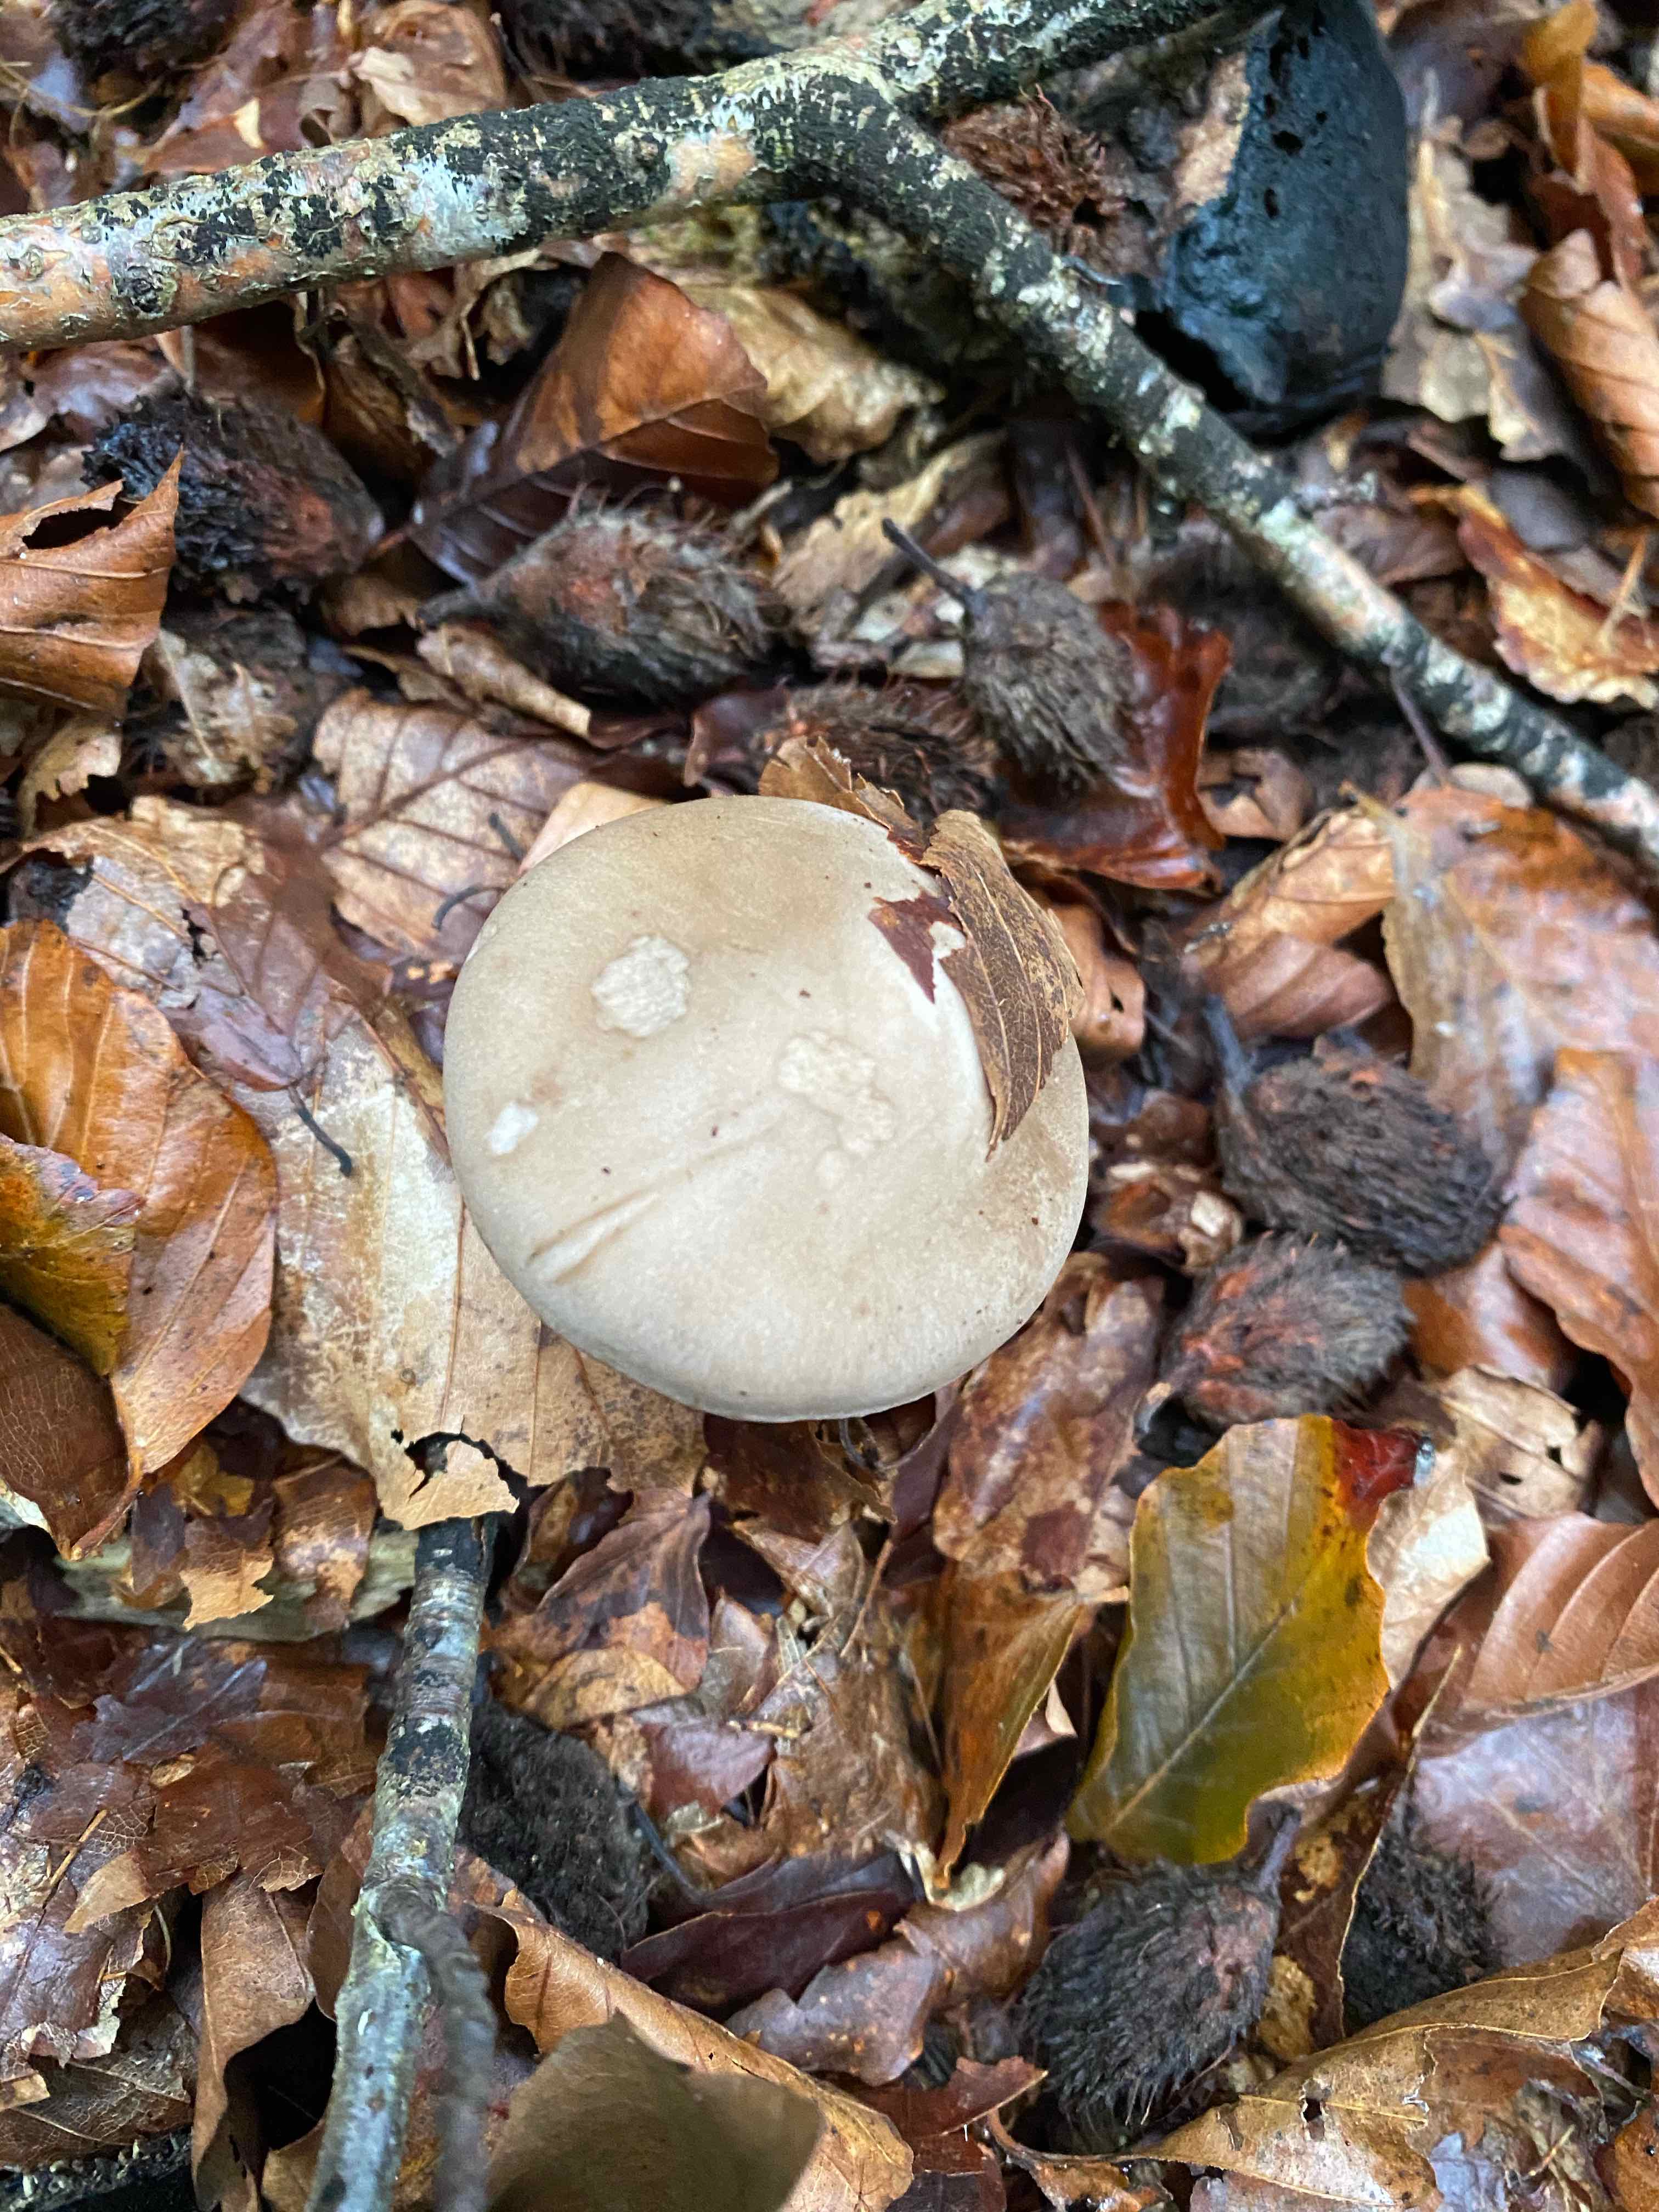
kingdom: Fungi
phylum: Basidiomycota
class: Agaricomycetes
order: Agaricales
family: Tricholomataceae
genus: Clitocybe
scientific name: Clitocybe nebularis
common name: tåge-tragthat
